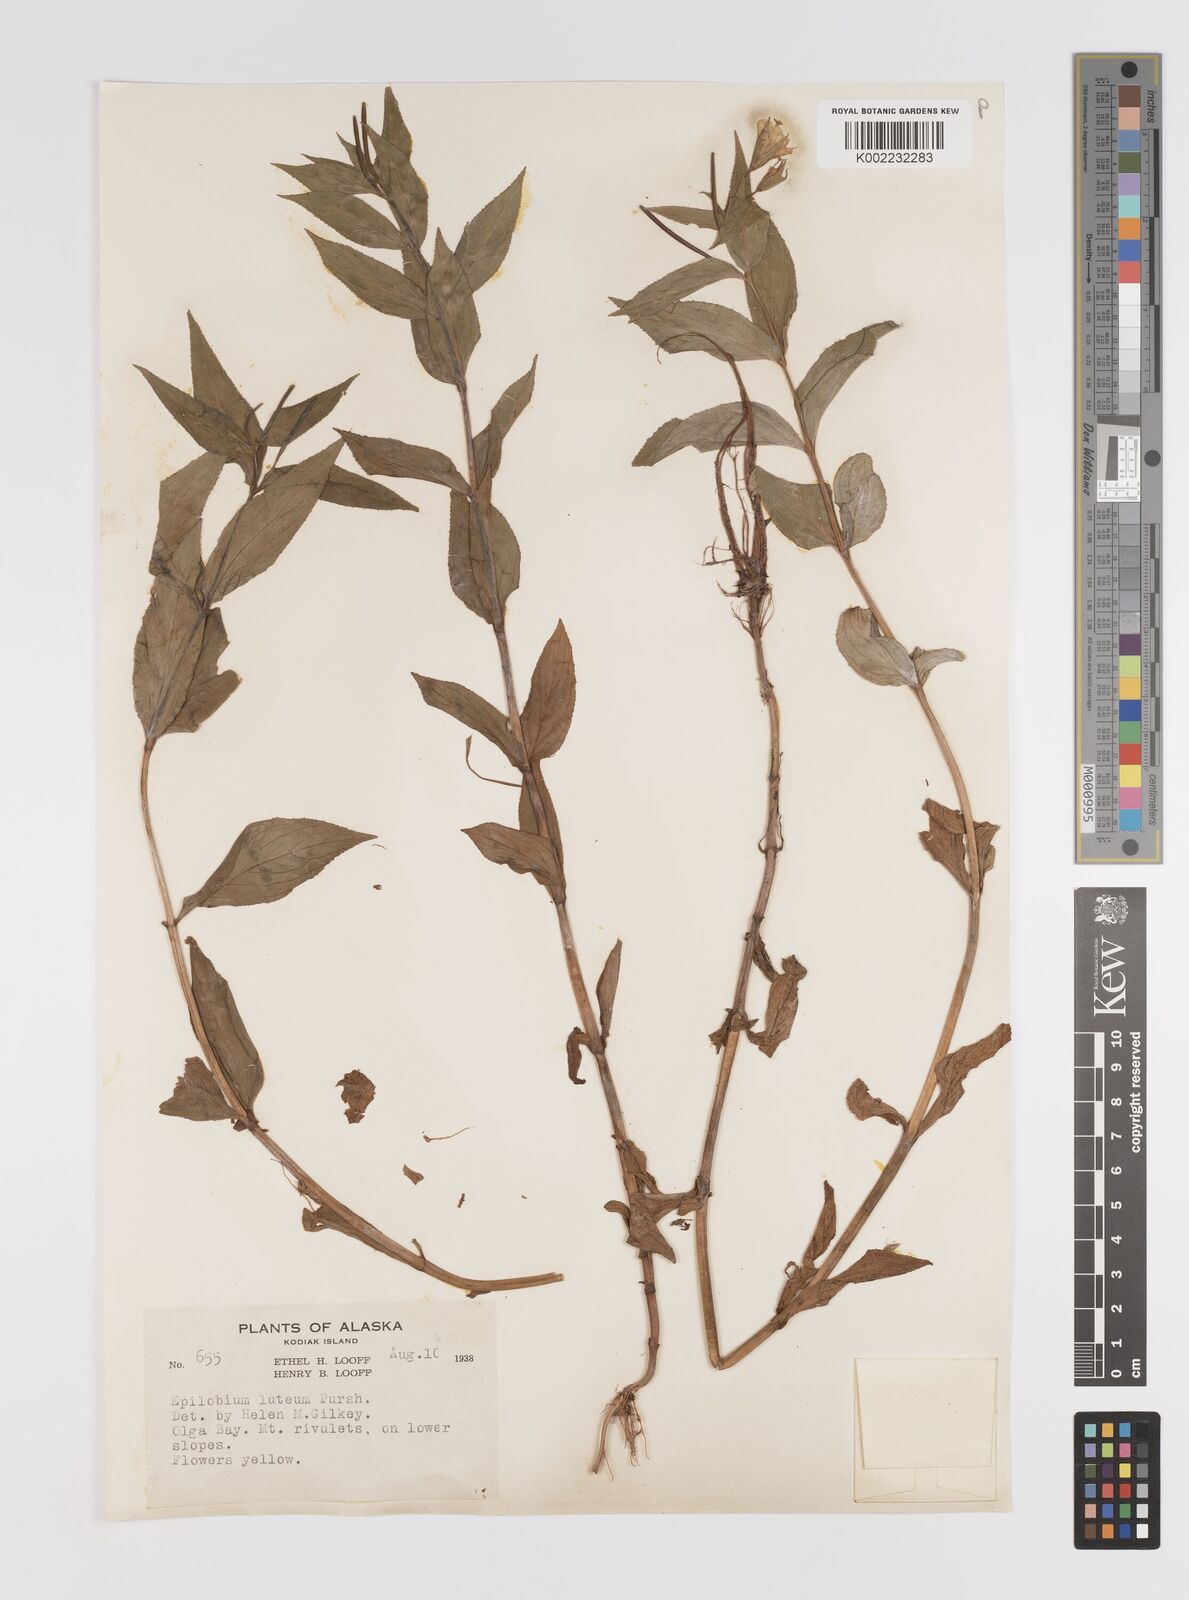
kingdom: Plantae
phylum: Tracheophyta
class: Magnoliopsida
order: Myrtales
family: Onagraceae
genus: Epilobium
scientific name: Epilobium luteum
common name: Yellow willowherb
